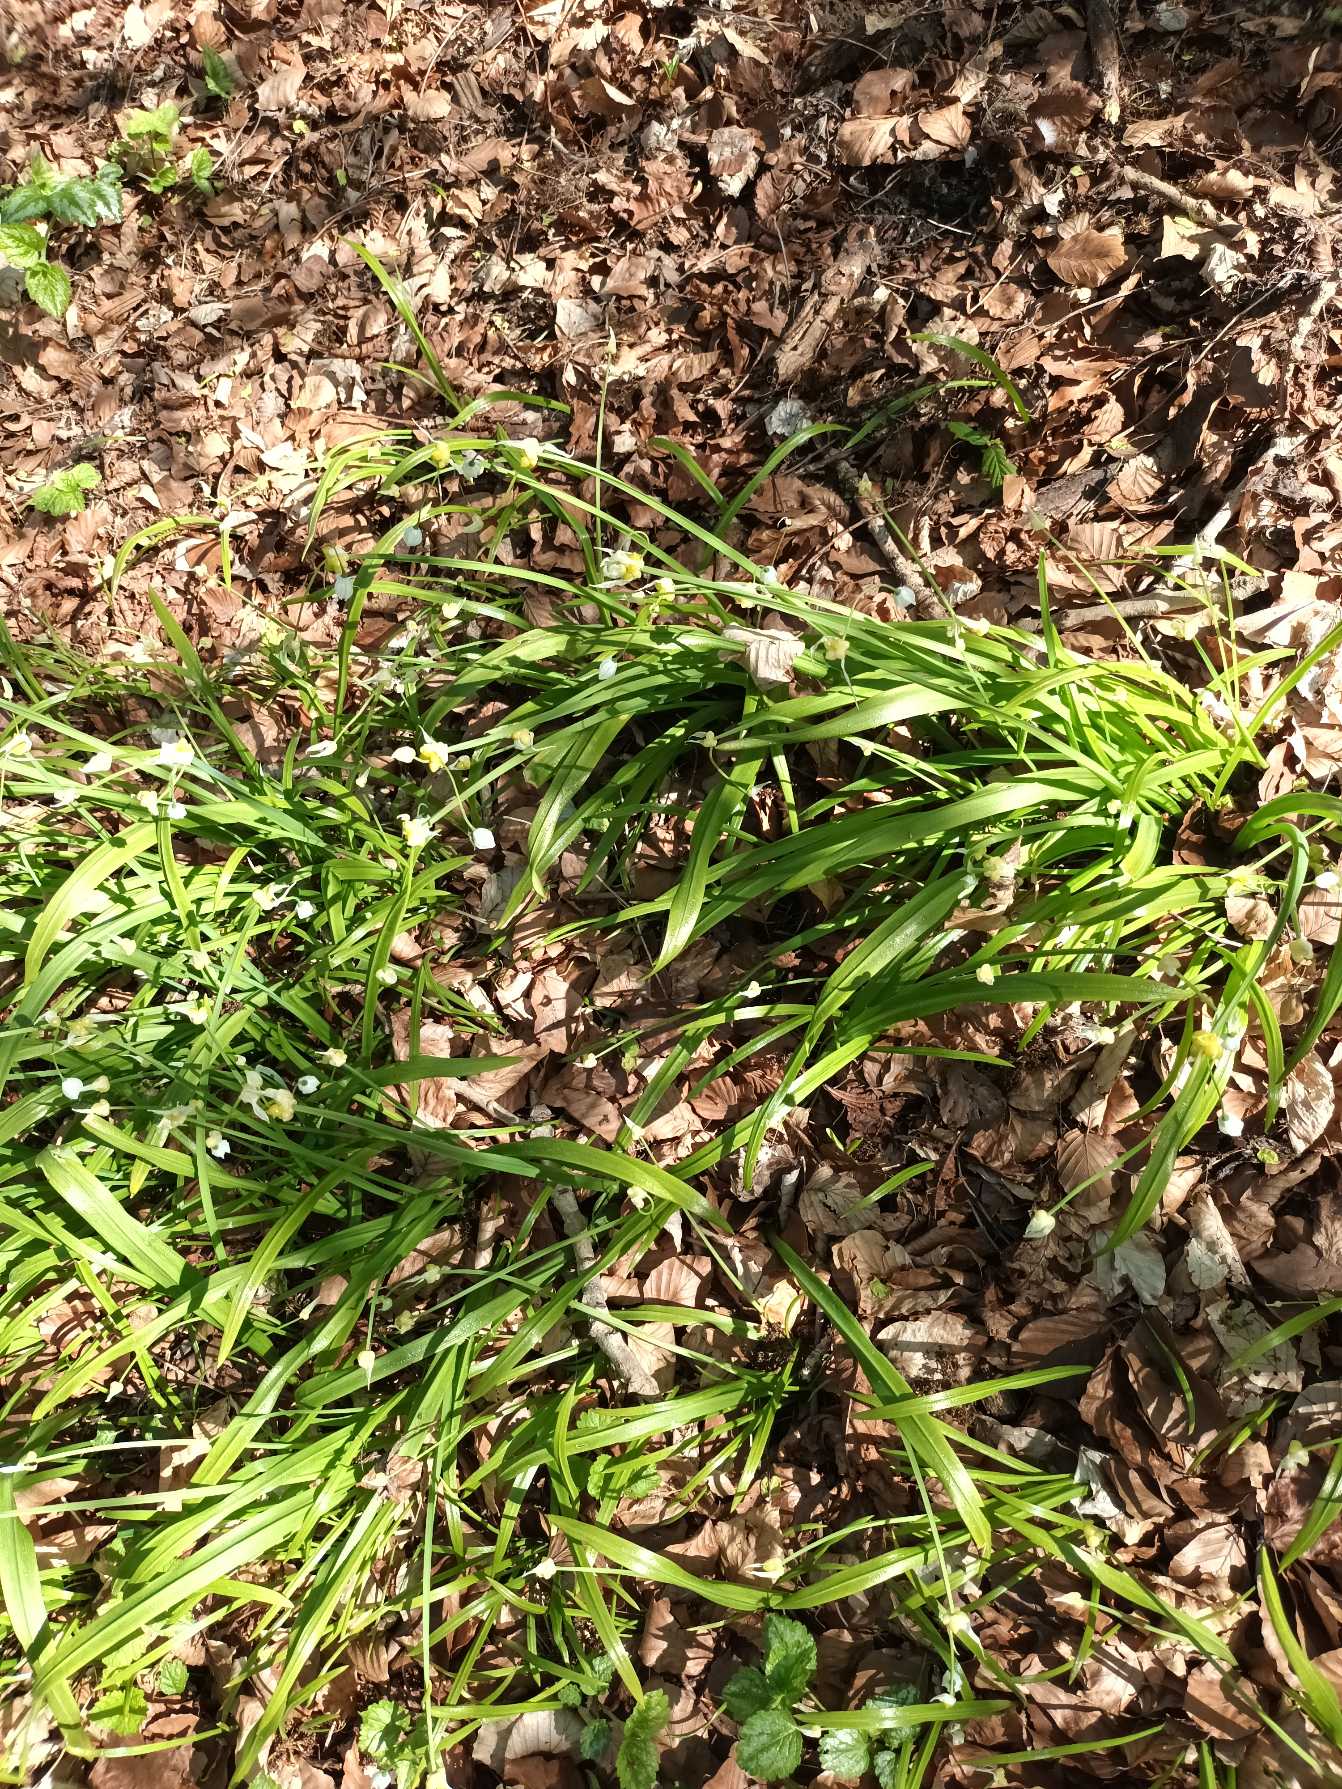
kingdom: Plantae
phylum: Tracheophyta
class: Liliopsida
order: Asparagales
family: Amaryllidaceae
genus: Allium
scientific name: Allium paradoxum
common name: Spøjs løg
